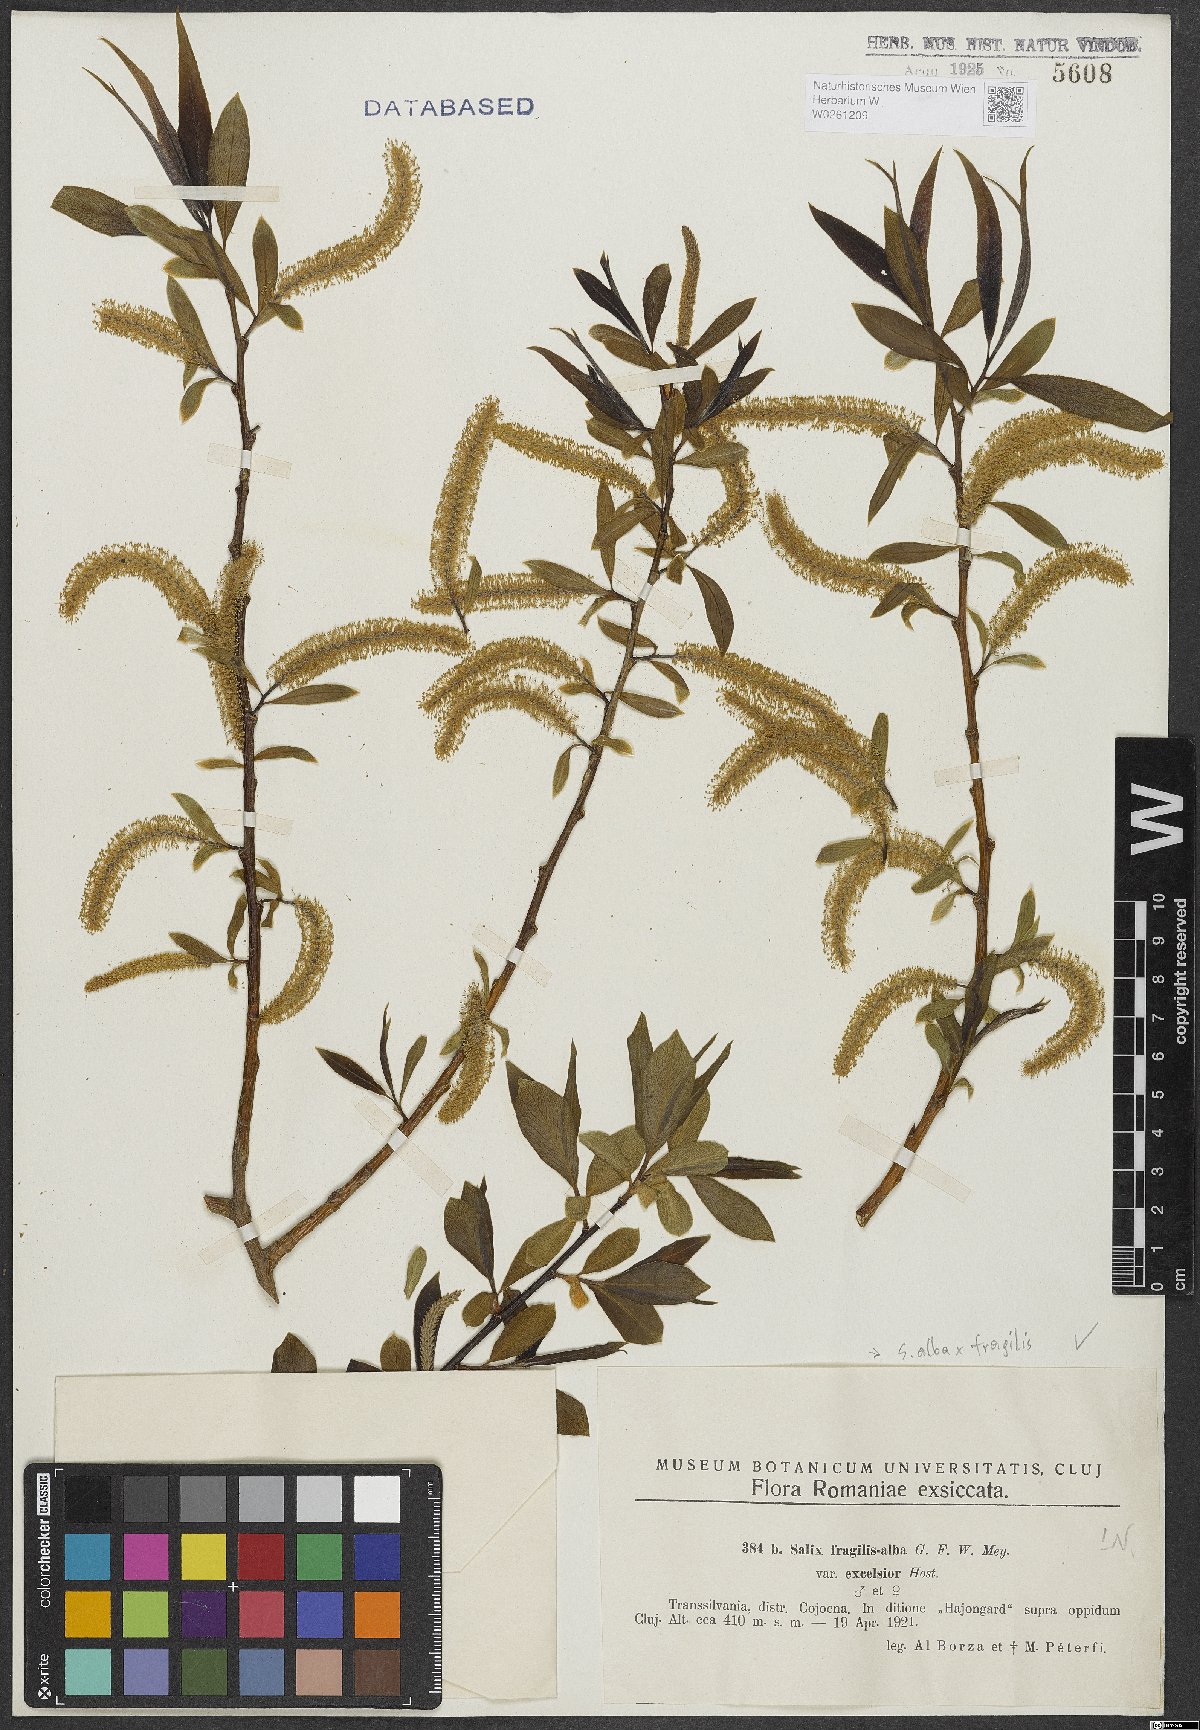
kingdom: Plantae
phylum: Tracheophyta
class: Magnoliopsida
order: Malpighiales
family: Salicaceae
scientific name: Salicaceae
